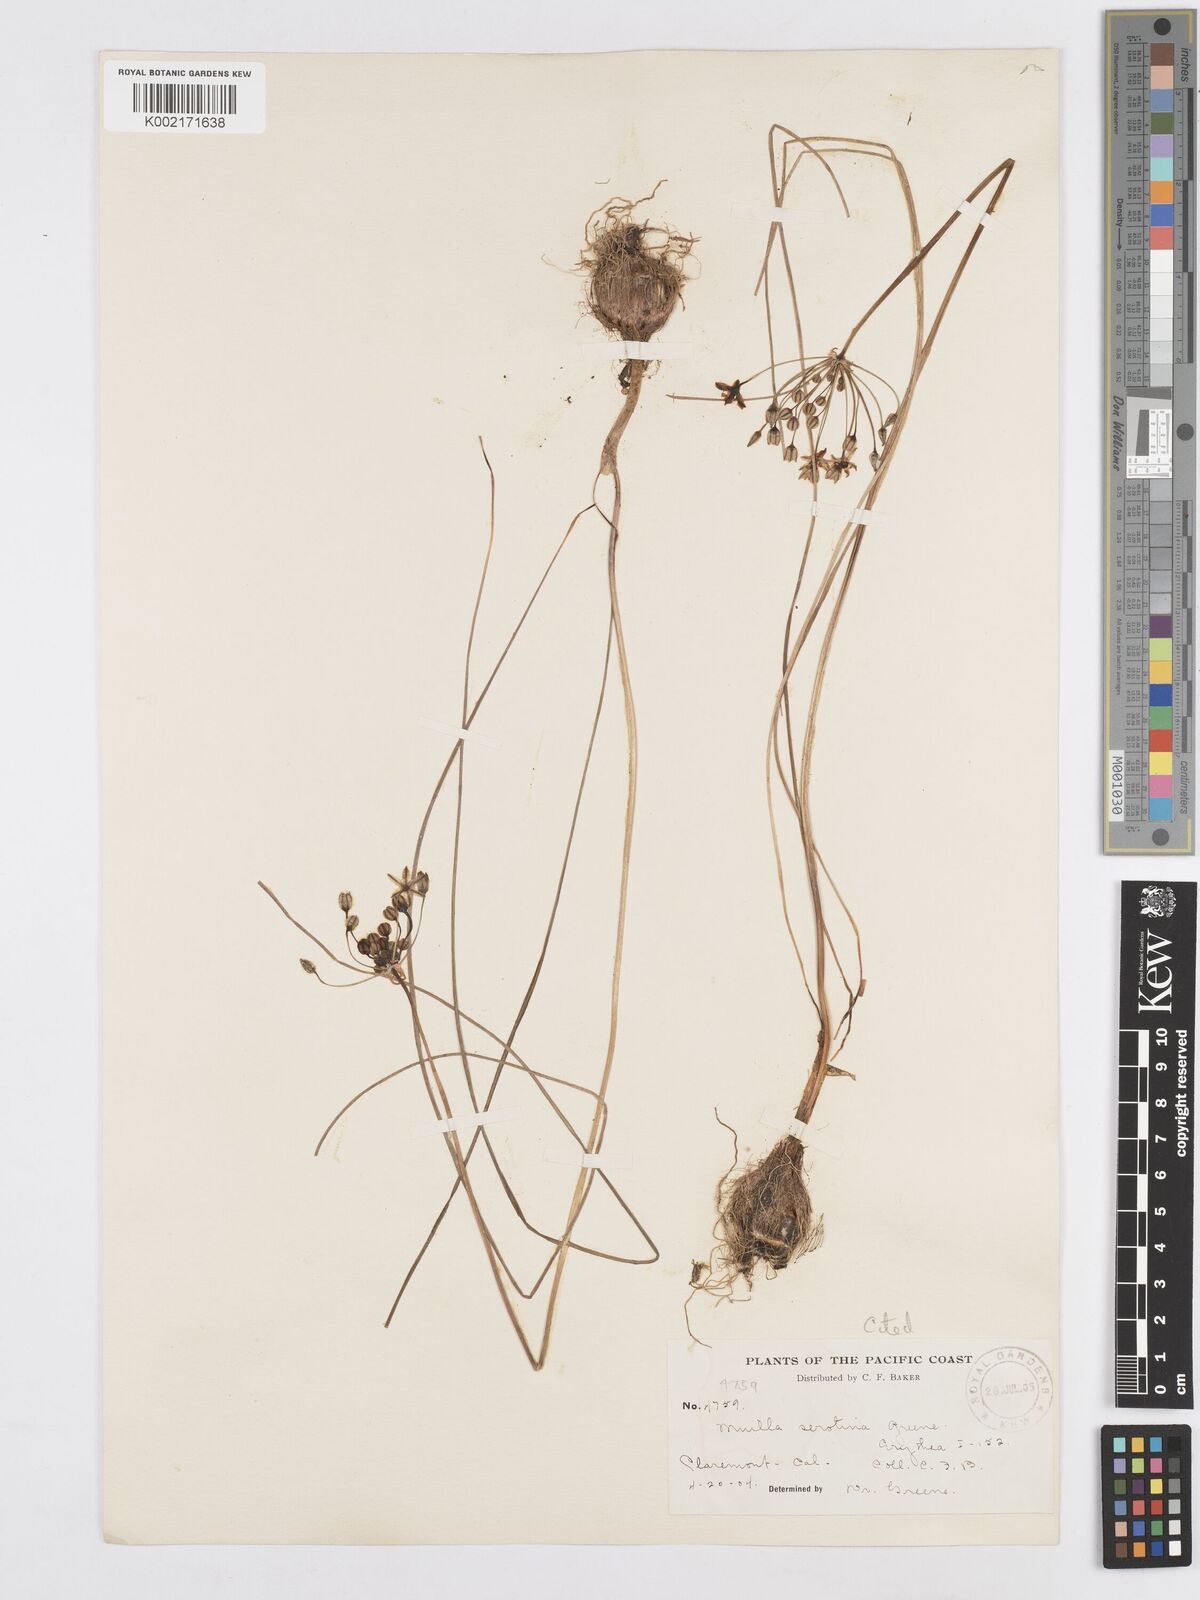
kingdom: Plantae
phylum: Tracheophyta
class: Liliopsida
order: Asparagales
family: Asparagaceae
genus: Muilla
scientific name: Muilla maritima
